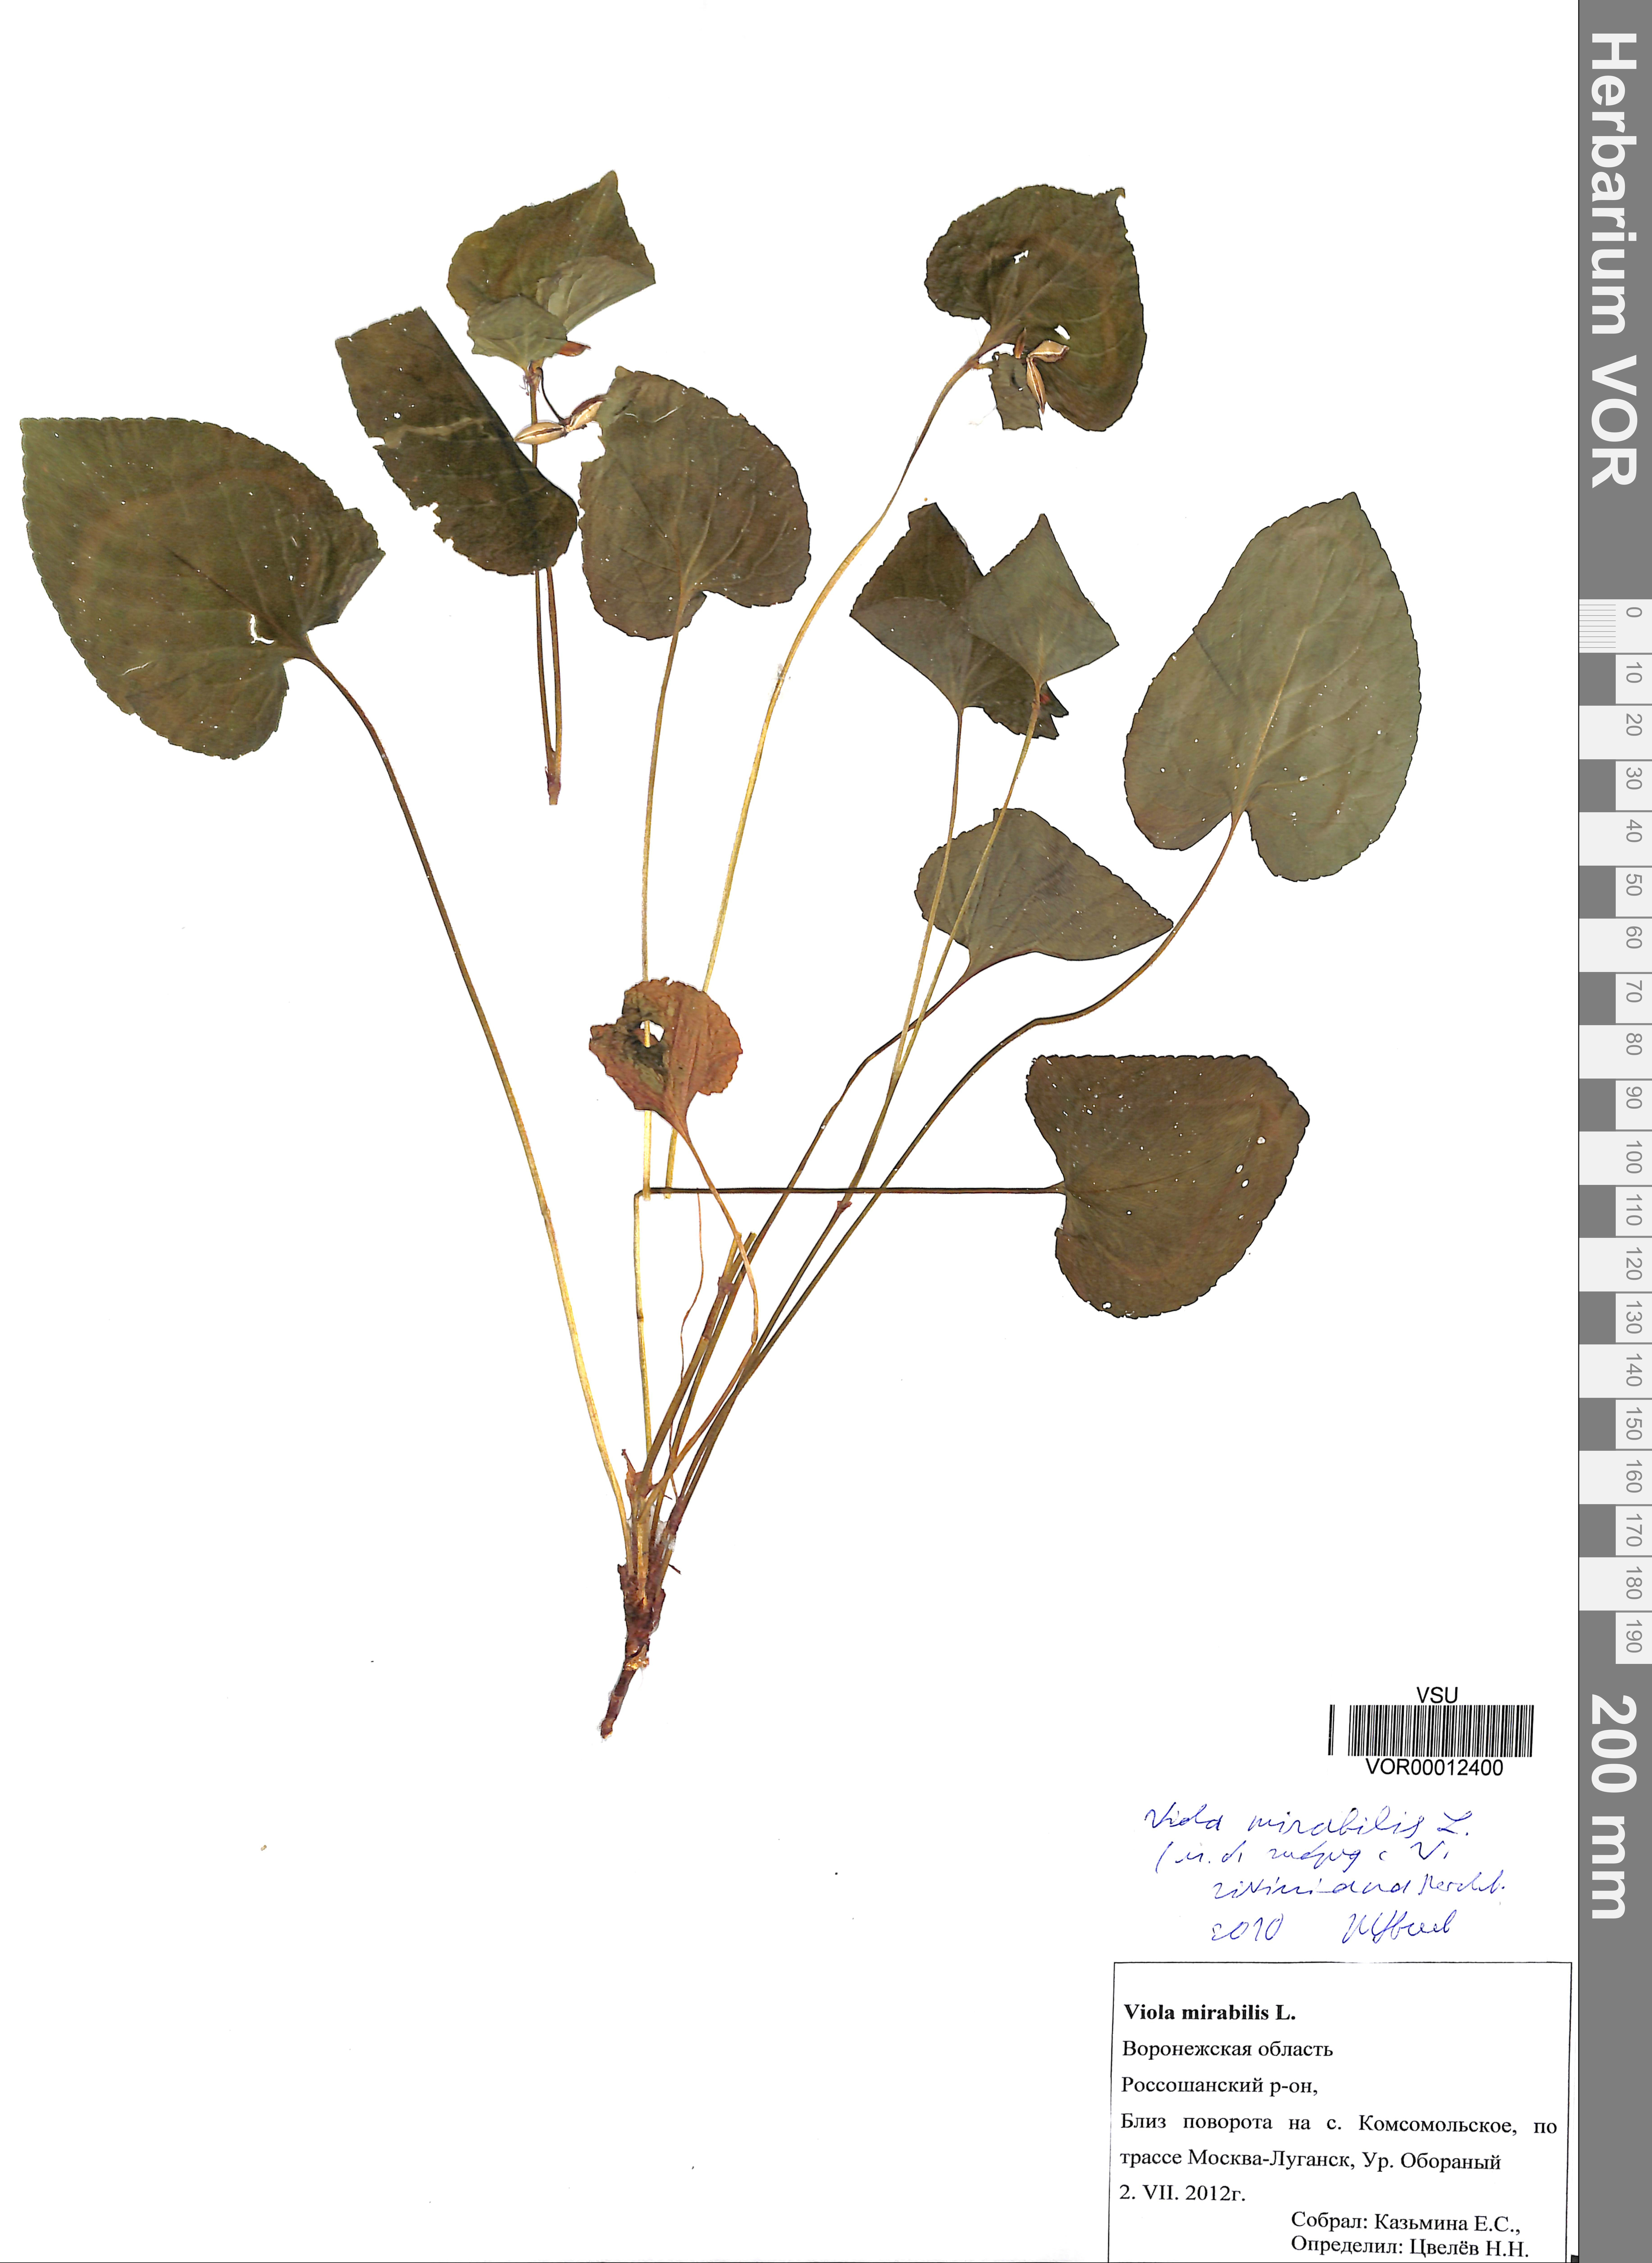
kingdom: Plantae
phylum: Tracheophyta
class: Magnoliopsida
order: Malpighiales
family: Violaceae
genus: Viola
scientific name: Viola mirabilis
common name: Wonder violet
